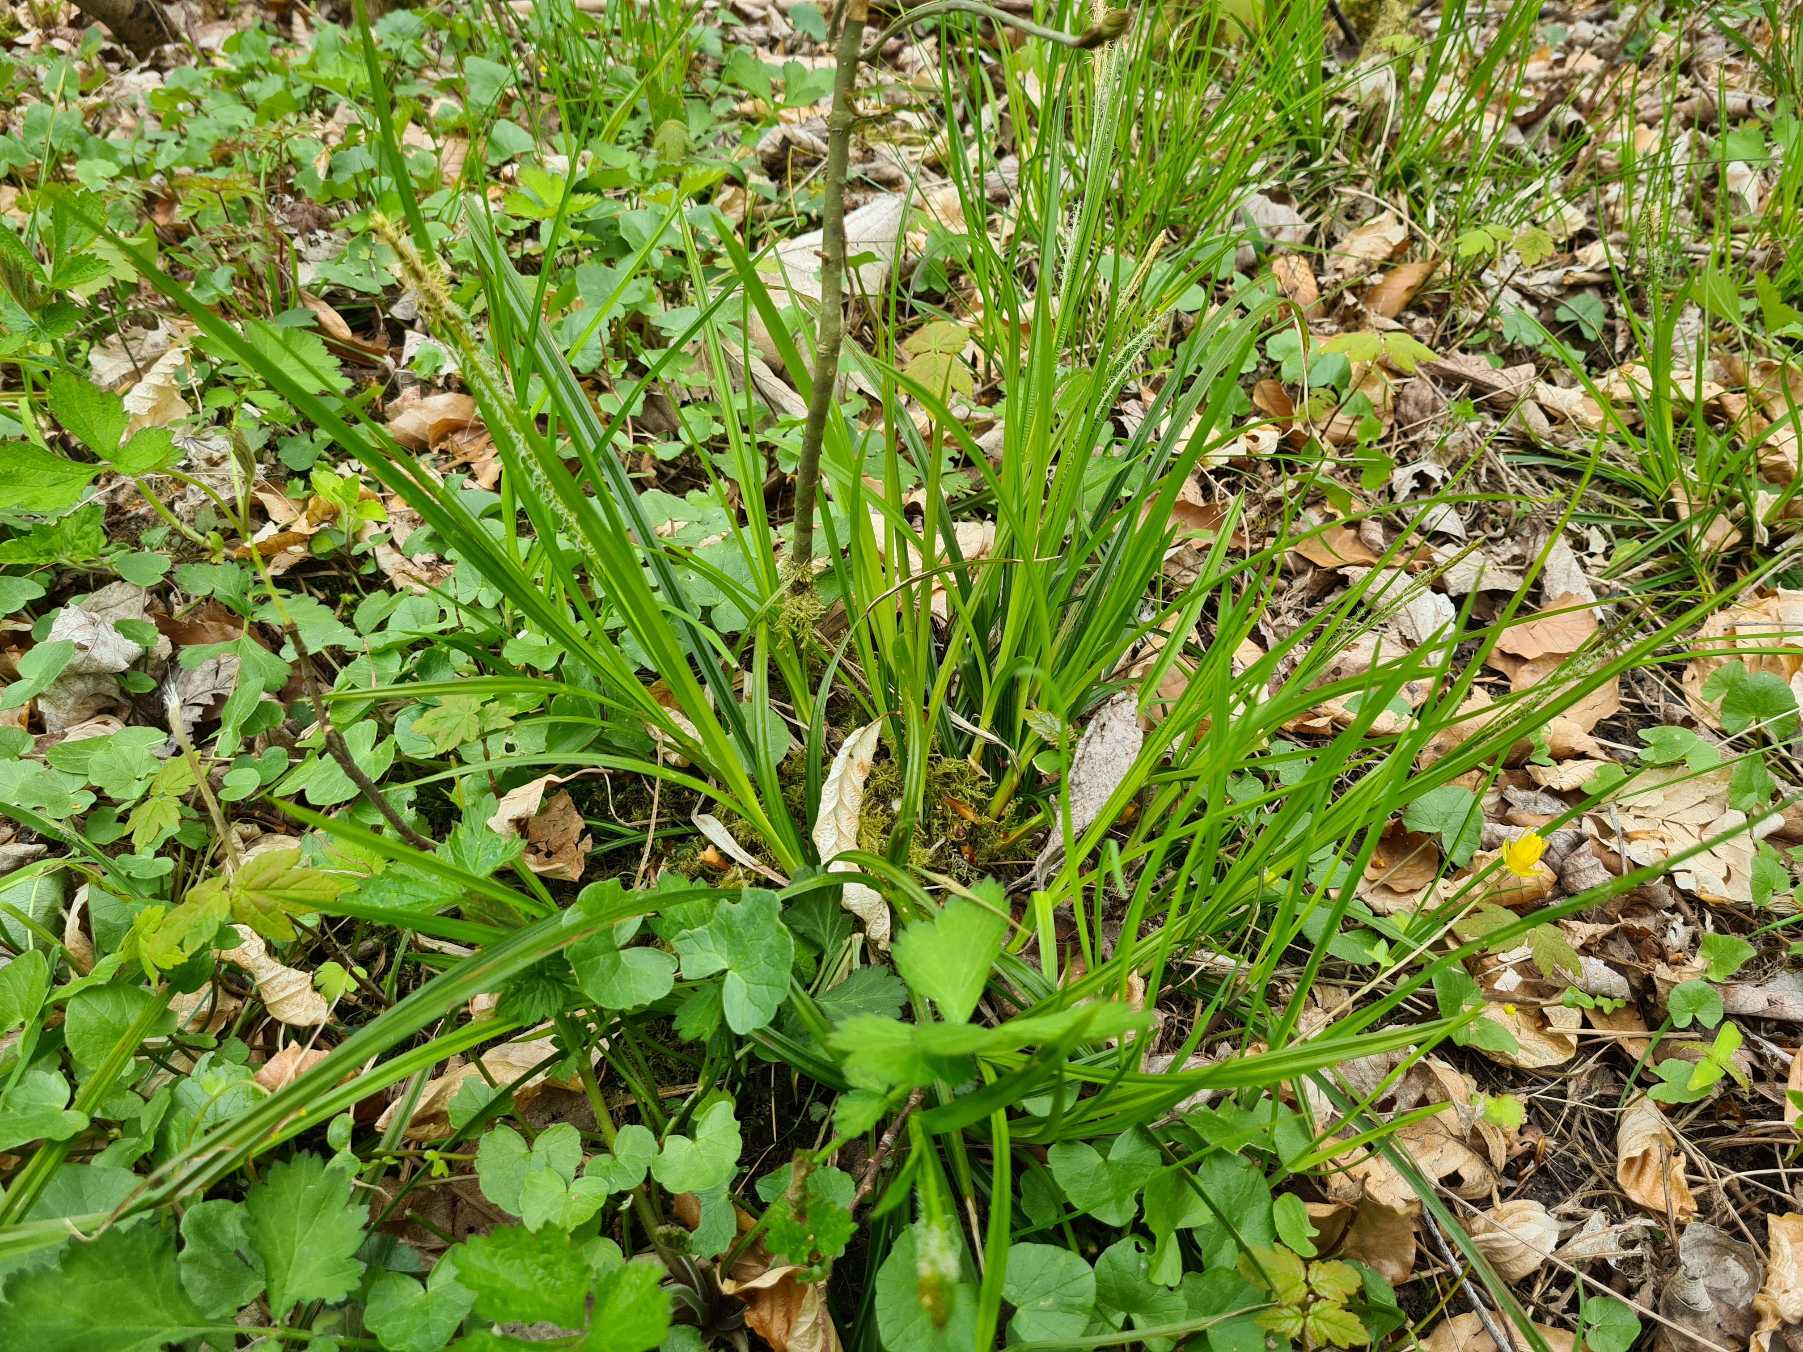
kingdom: Plantae
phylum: Tracheophyta
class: Liliopsida
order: Poales
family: Cyperaceae
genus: Carex
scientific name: Carex sylvatica
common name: Skov-star
